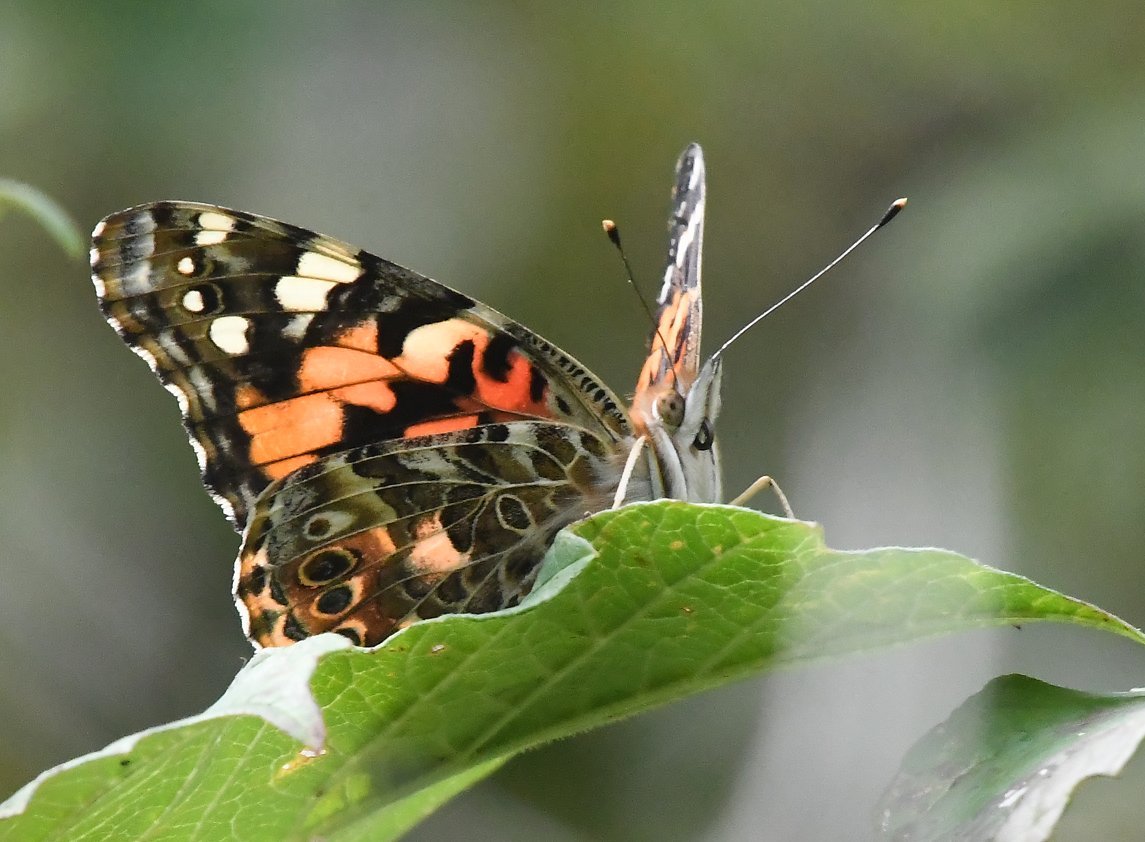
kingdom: Animalia
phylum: Arthropoda
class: Insecta
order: Lepidoptera
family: Nymphalidae
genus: Vanessa
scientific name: Vanessa cardui
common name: Painted Lady
